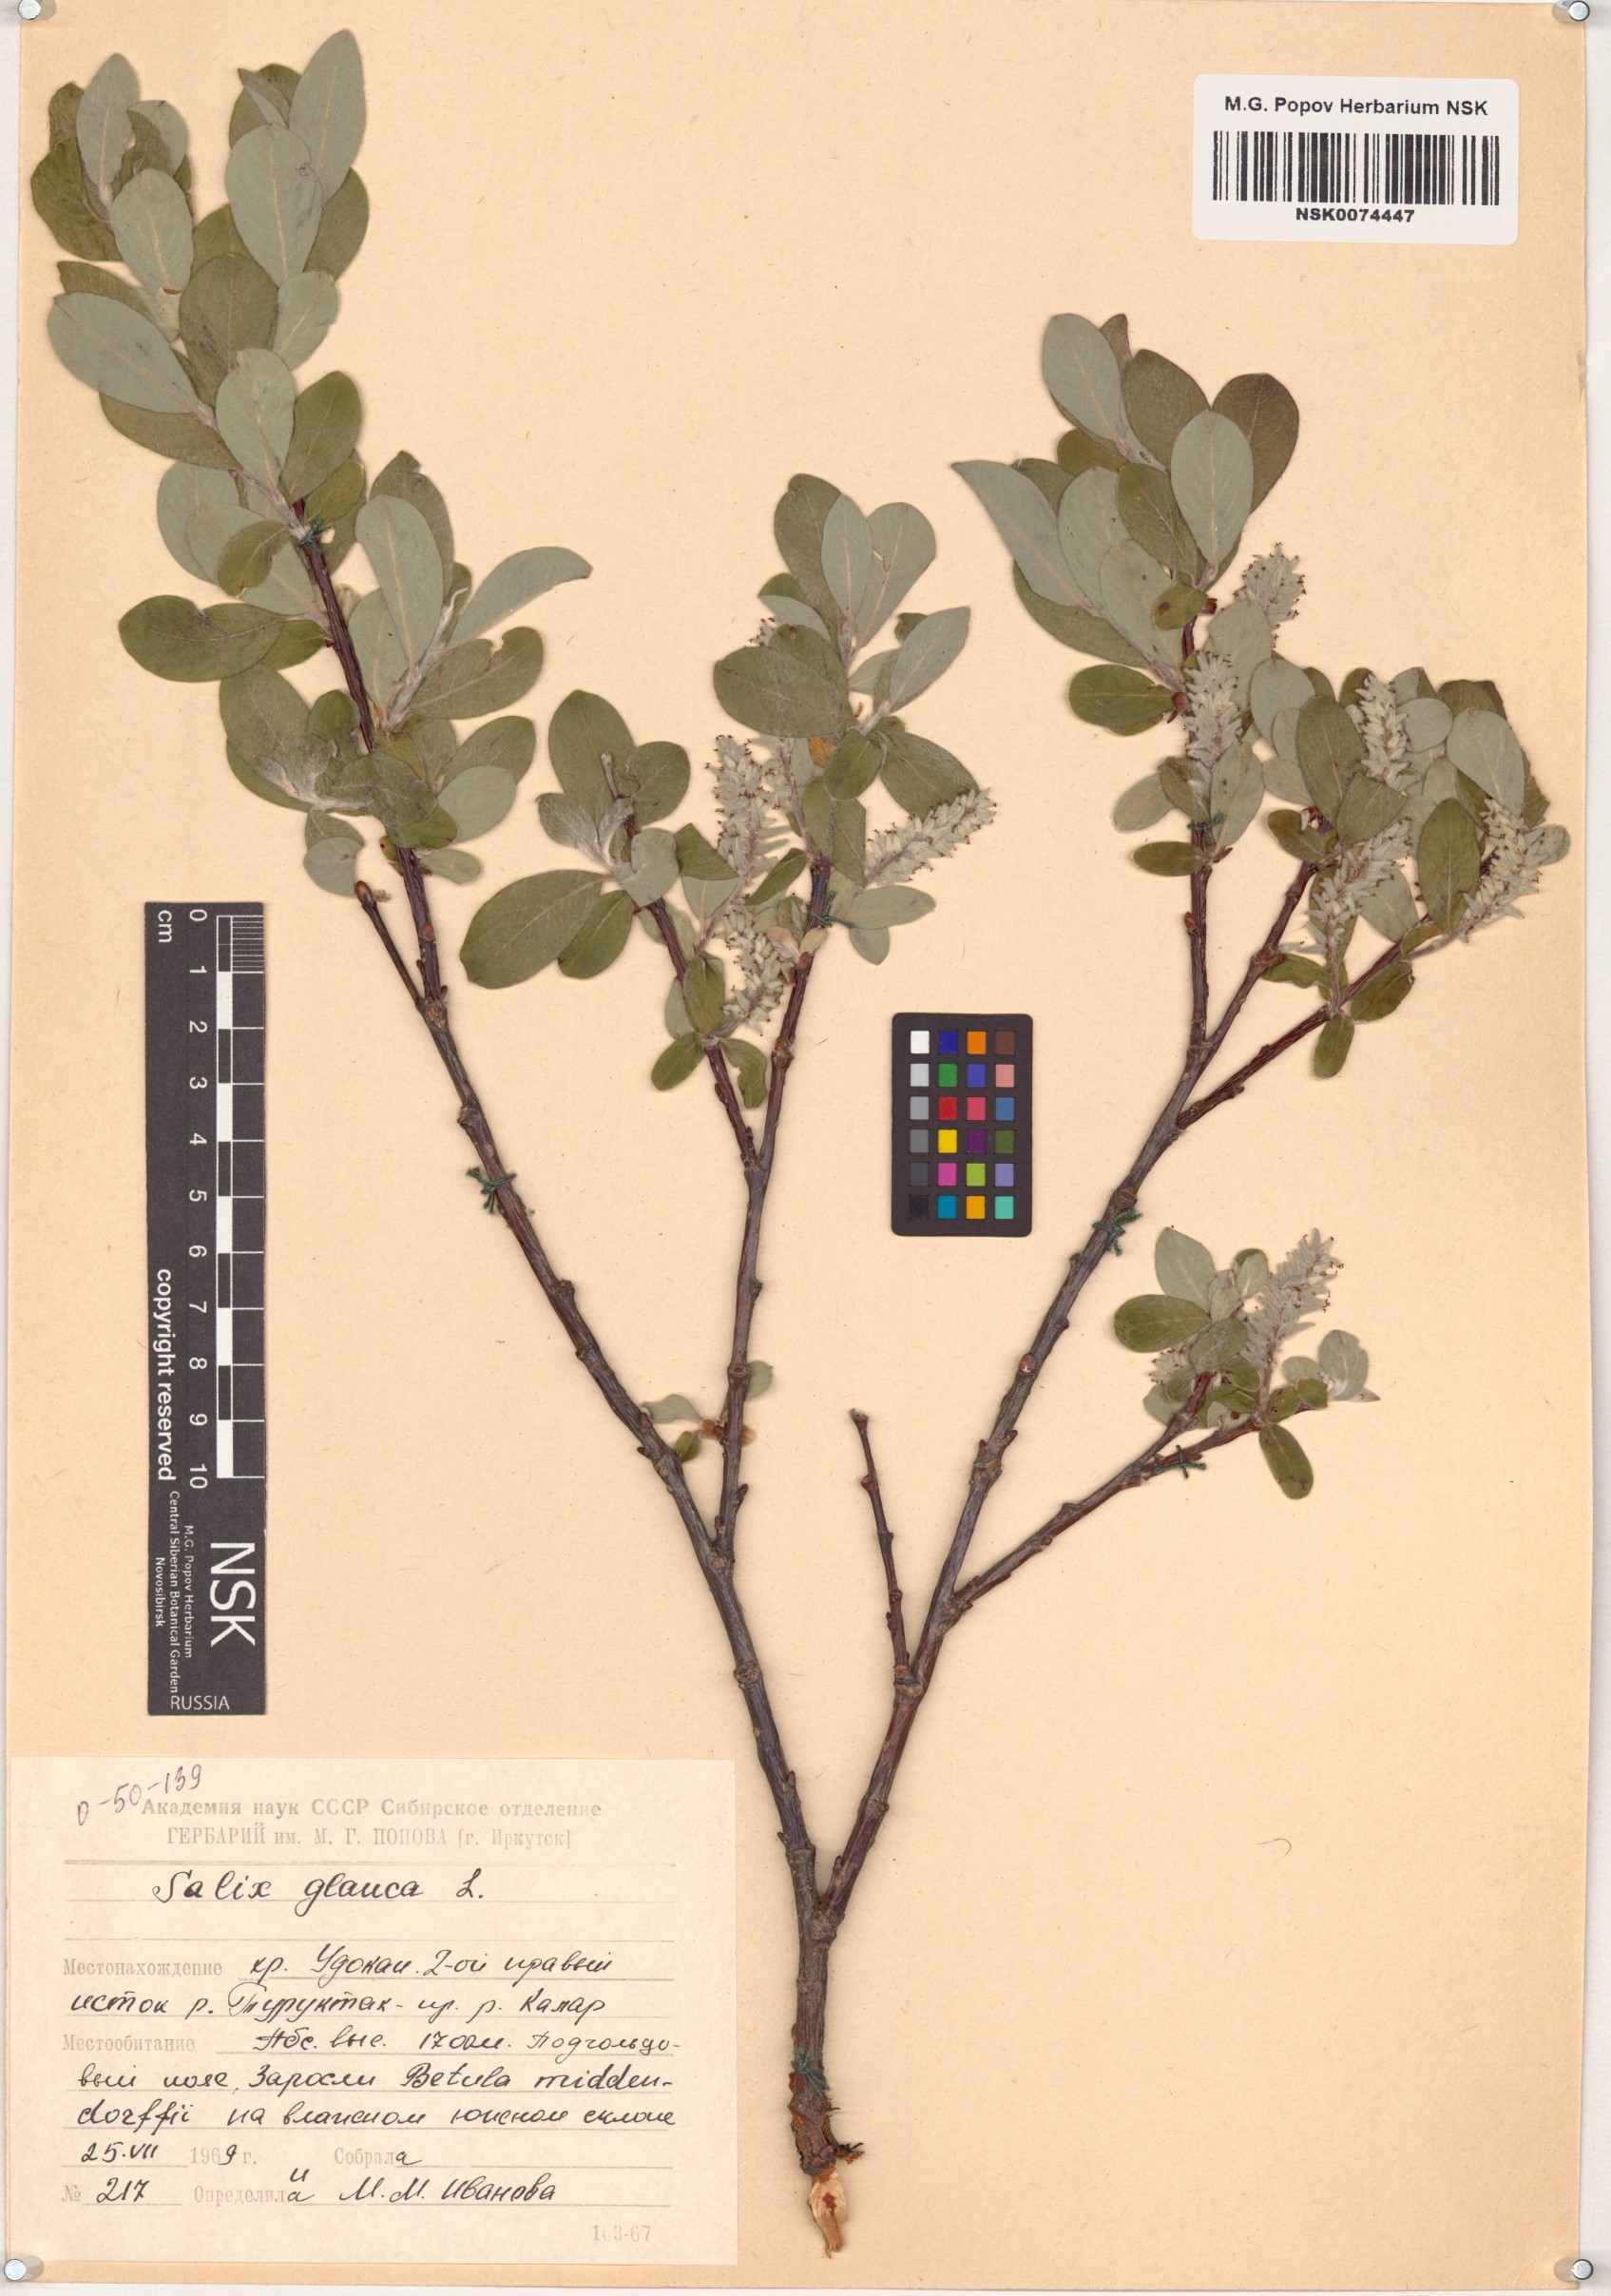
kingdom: Plantae
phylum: Tracheophyta
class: Magnoliopsida
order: Malpighiales
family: Salicaceae
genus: Salix
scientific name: Salix glauca
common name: Glaucous willow
